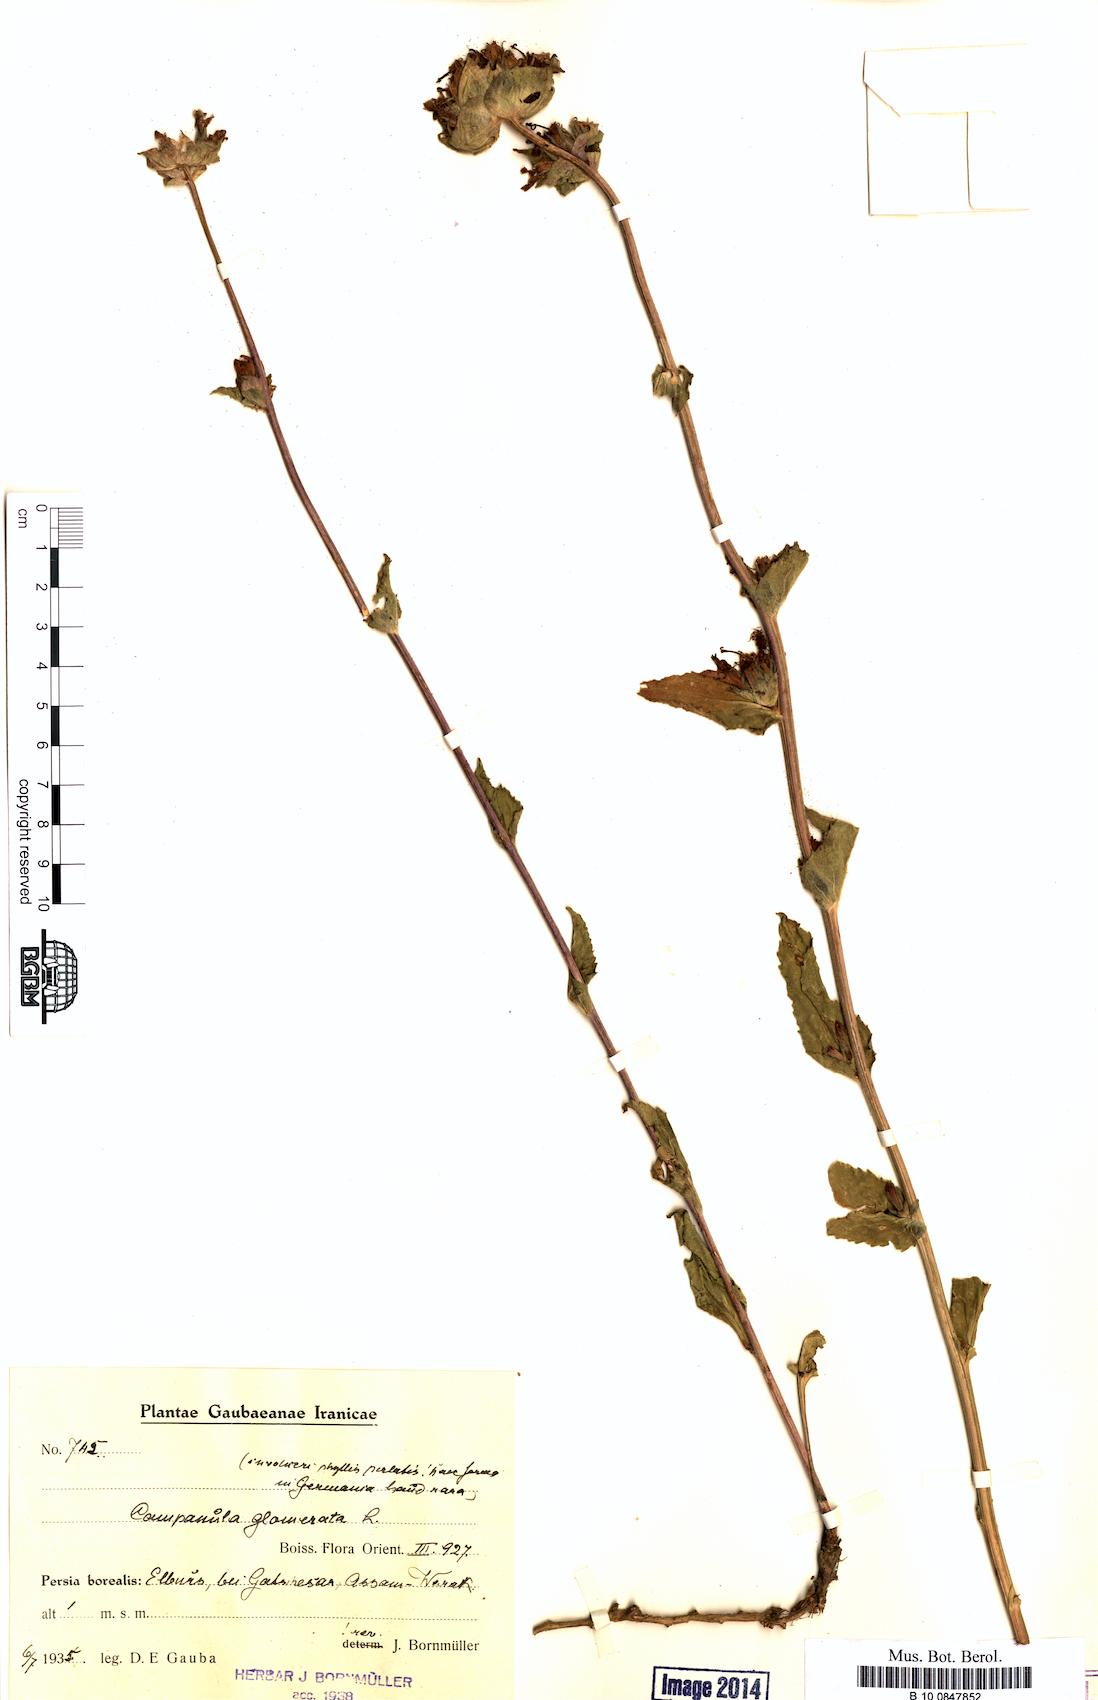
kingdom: Plantae
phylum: Tracheophyta
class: Magnoliopsida
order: Asterales
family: Campanulaceae
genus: Campanula
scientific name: Campanula glomerata
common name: Clustered bellflower
